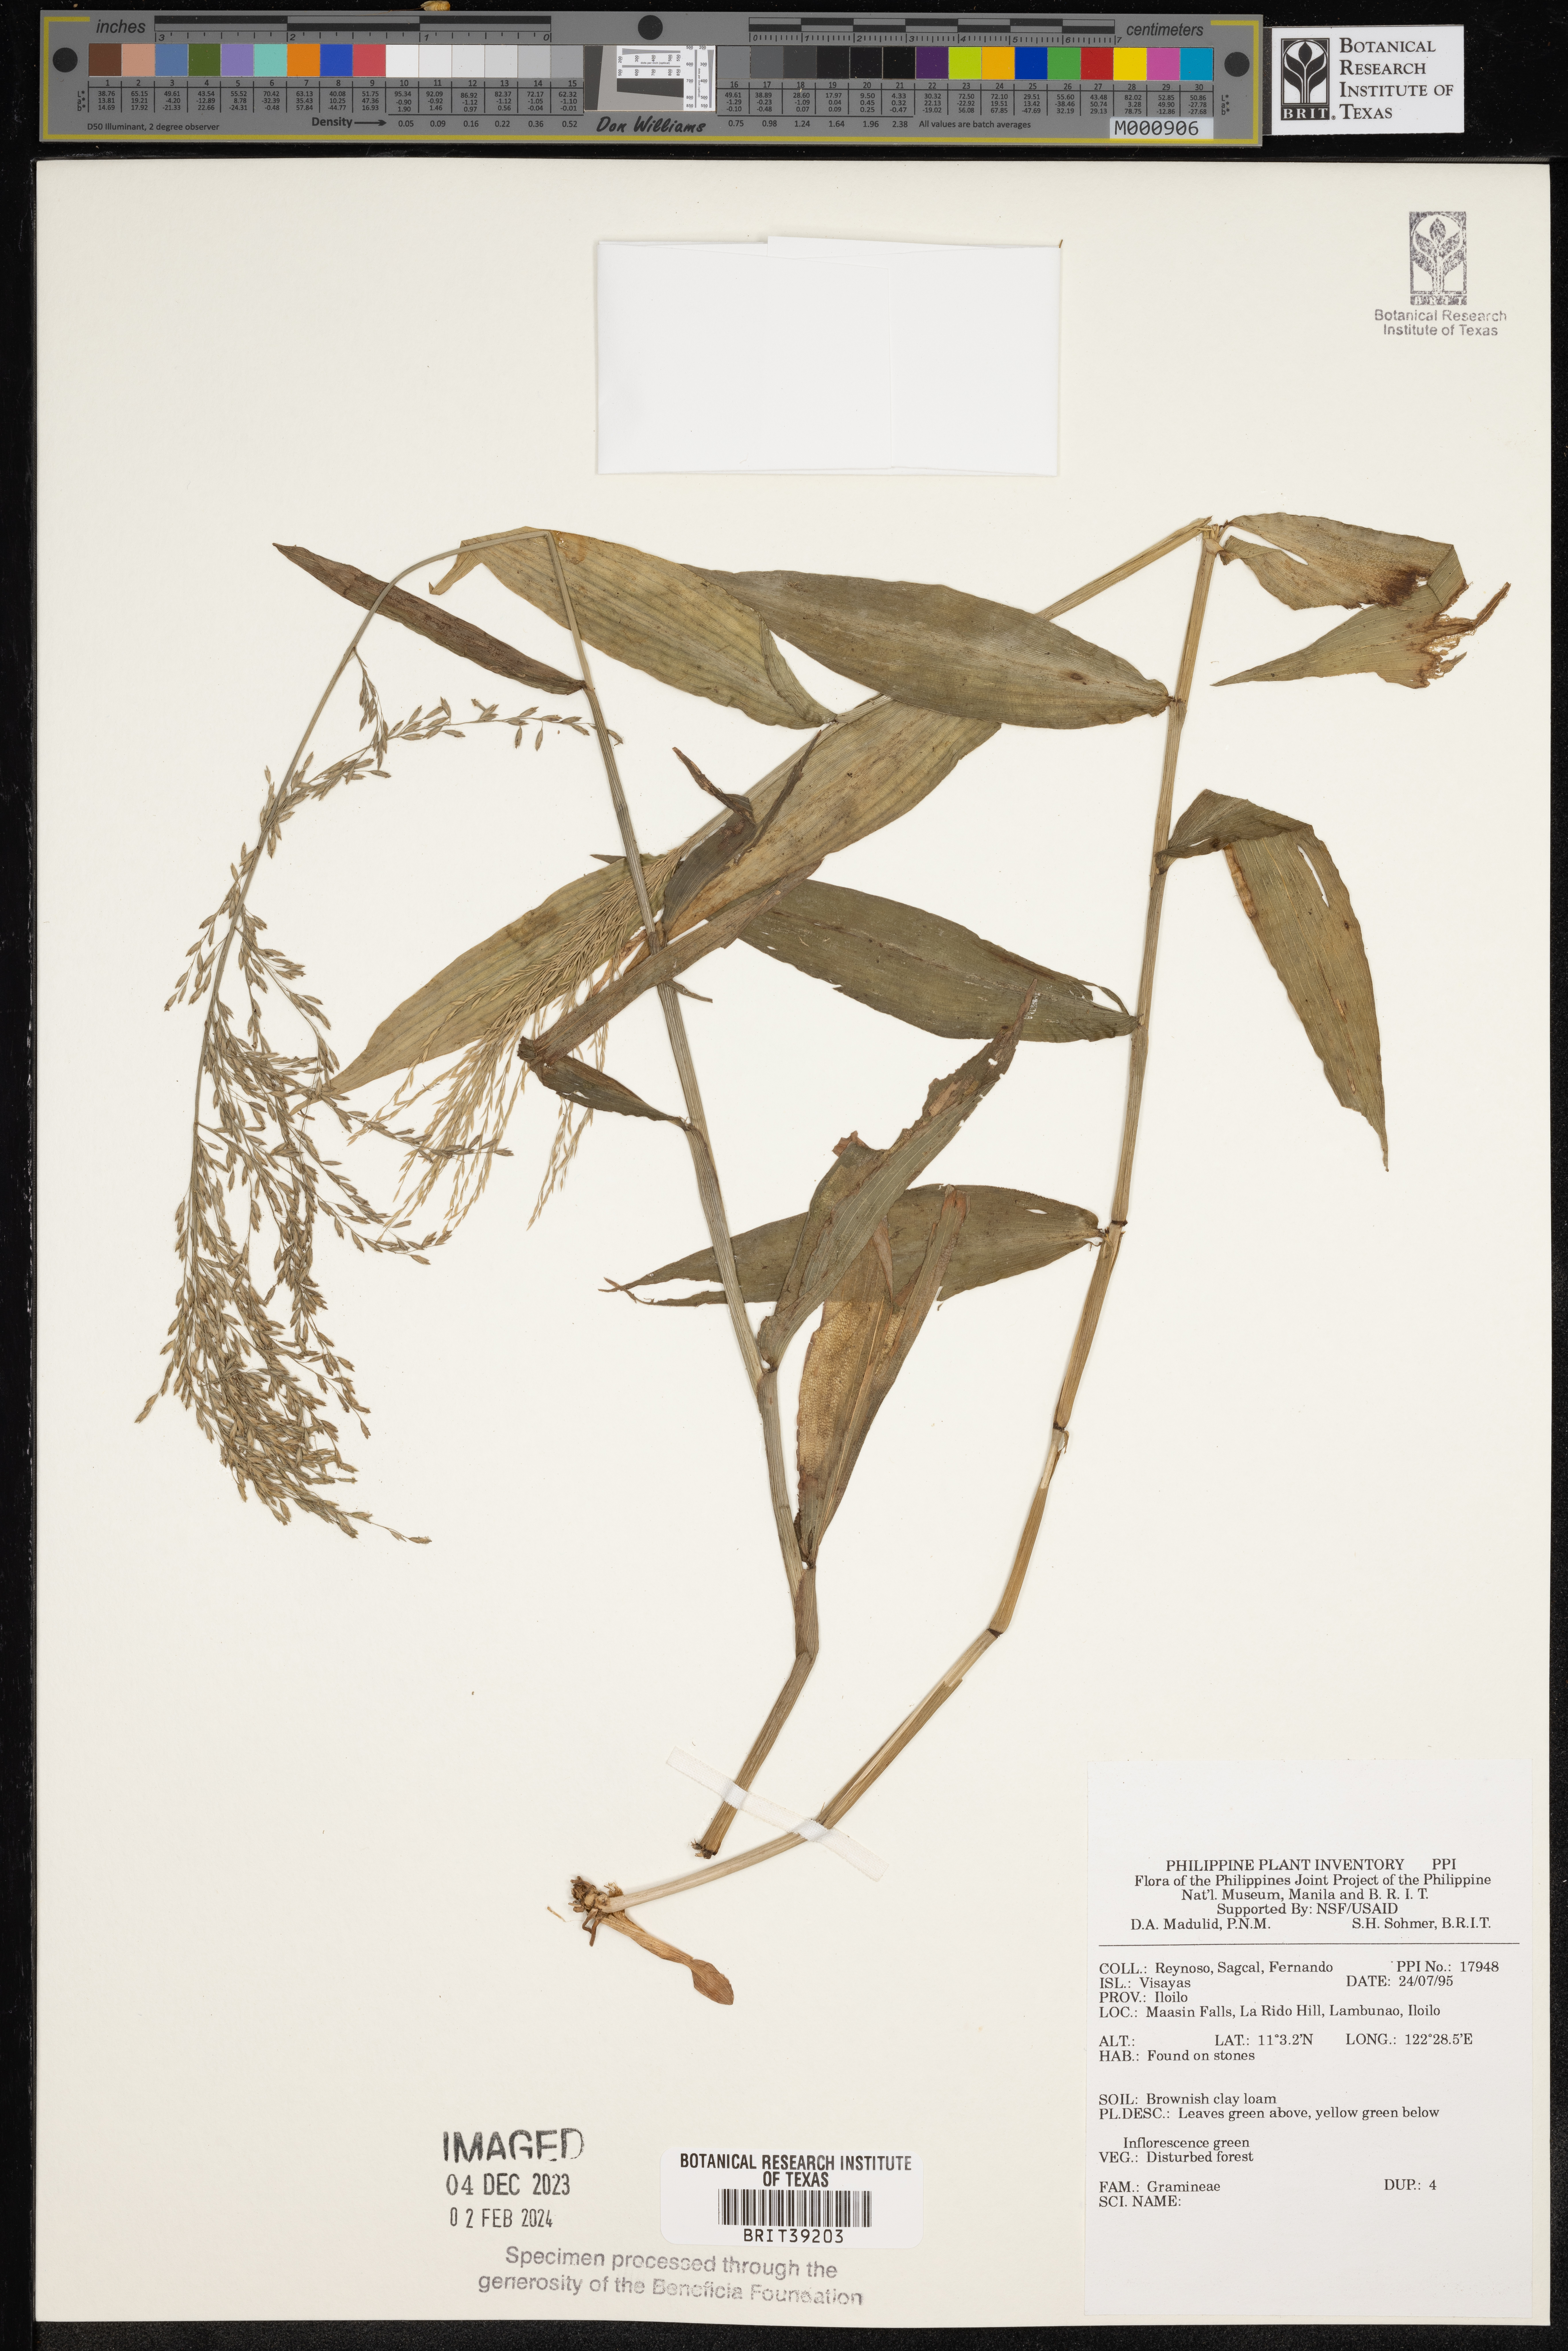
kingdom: Plantae
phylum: Tracheophyta
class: Liliopsida
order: Poales
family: Poaceae
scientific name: Poaceae
